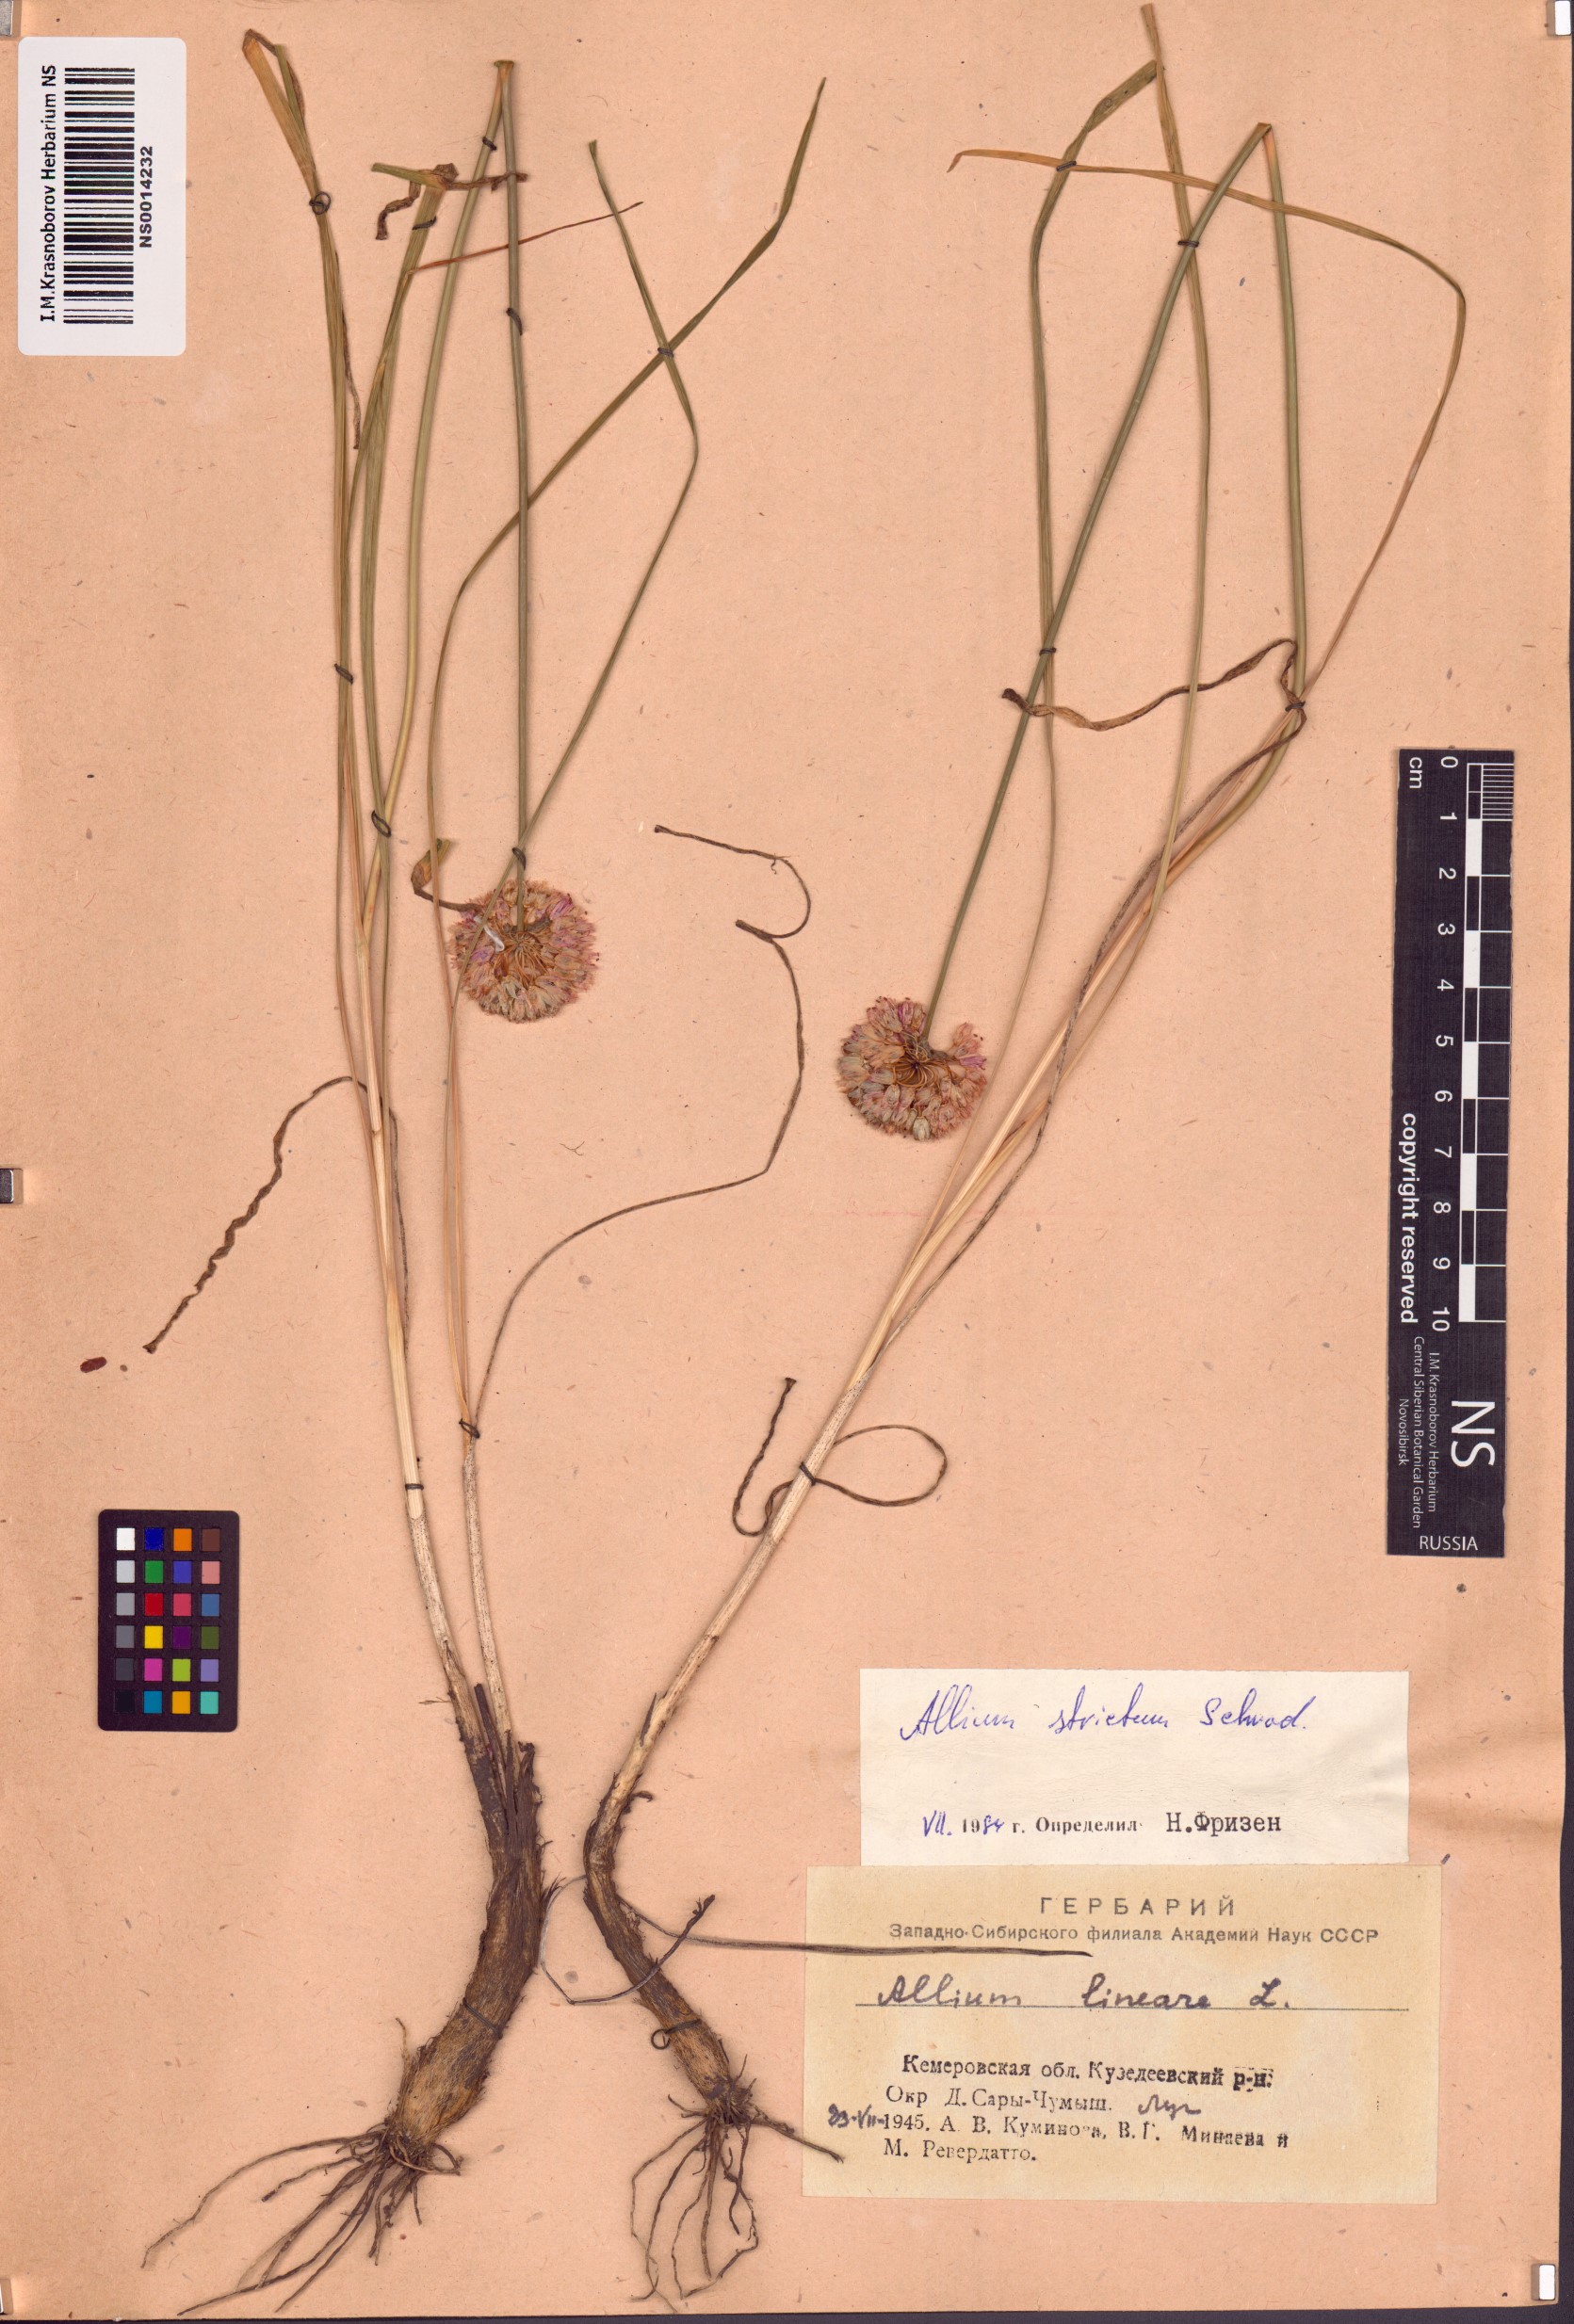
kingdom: Plantae
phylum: Tracheophyta
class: Liliopsida
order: Asparagales
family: Amaryllidaceae
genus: Allium
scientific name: Allium strictum
